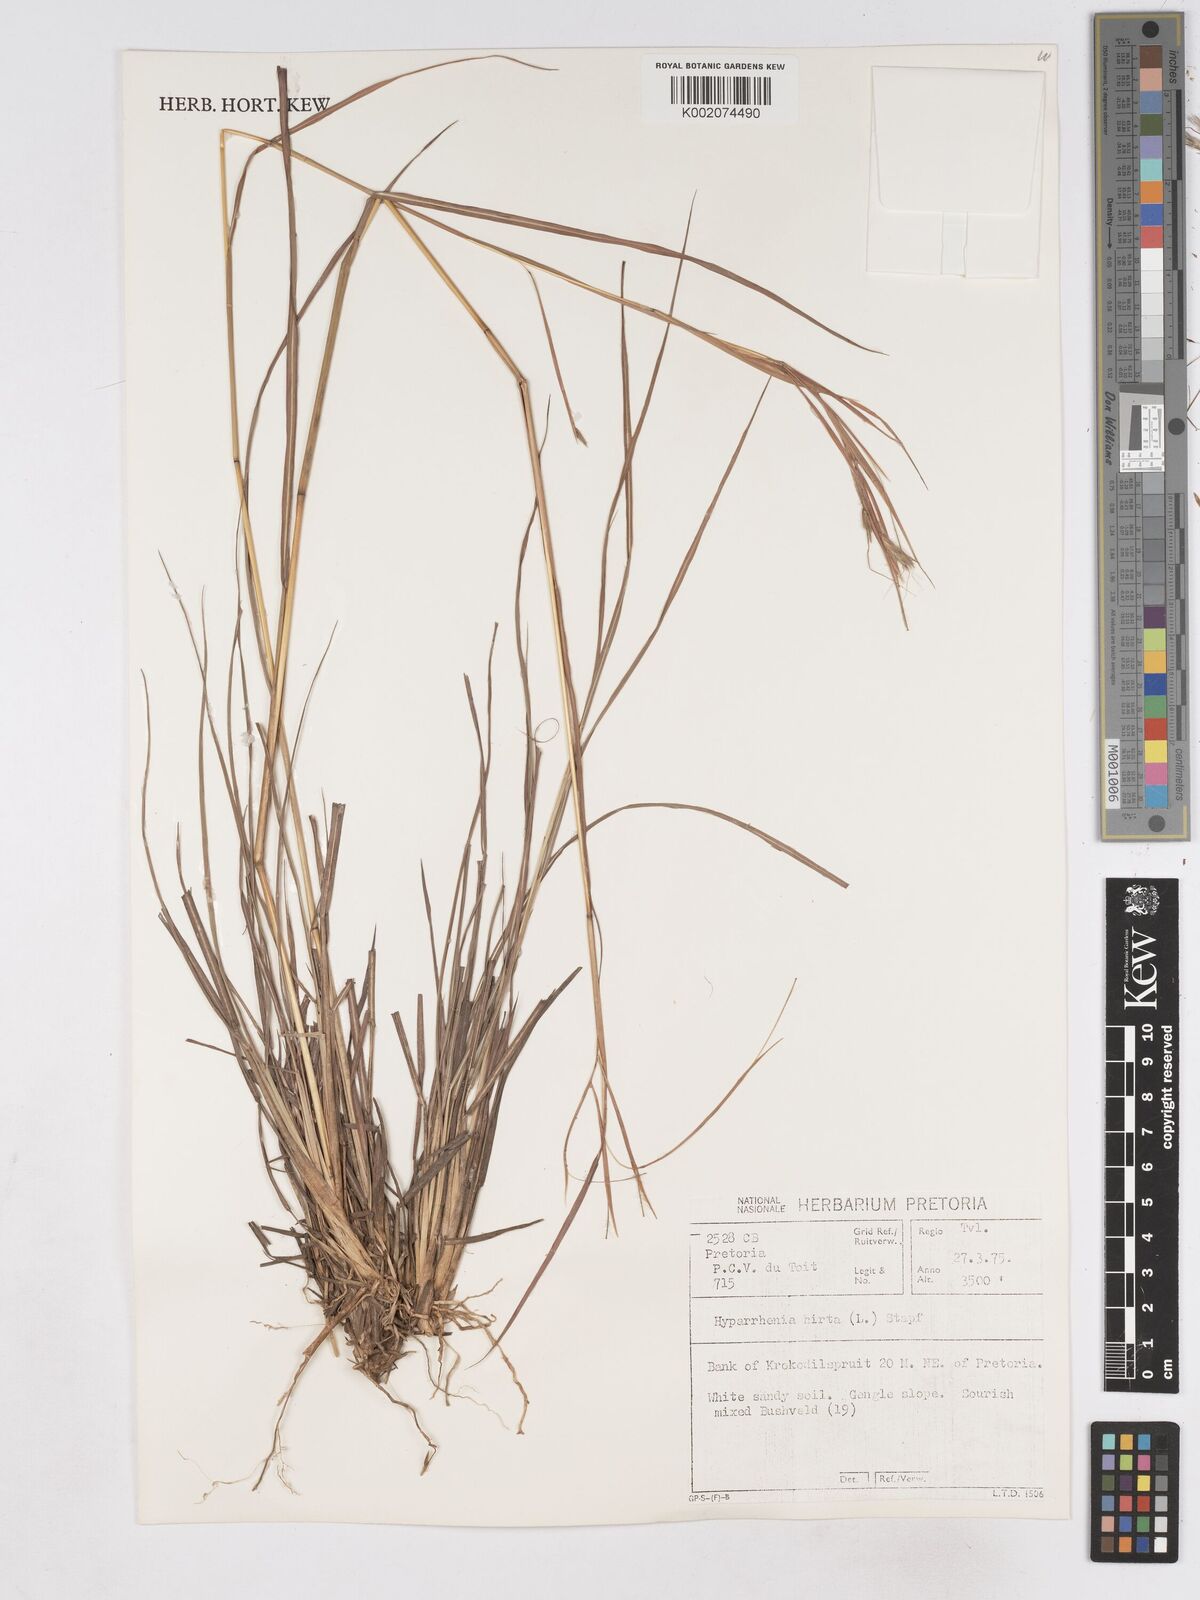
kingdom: Plantae
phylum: Tracheophyta
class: Liliopsida
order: Poales
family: Poaceae
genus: Hyparrhenia
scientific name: Hyparrhenia hirta
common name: Thatching grass
